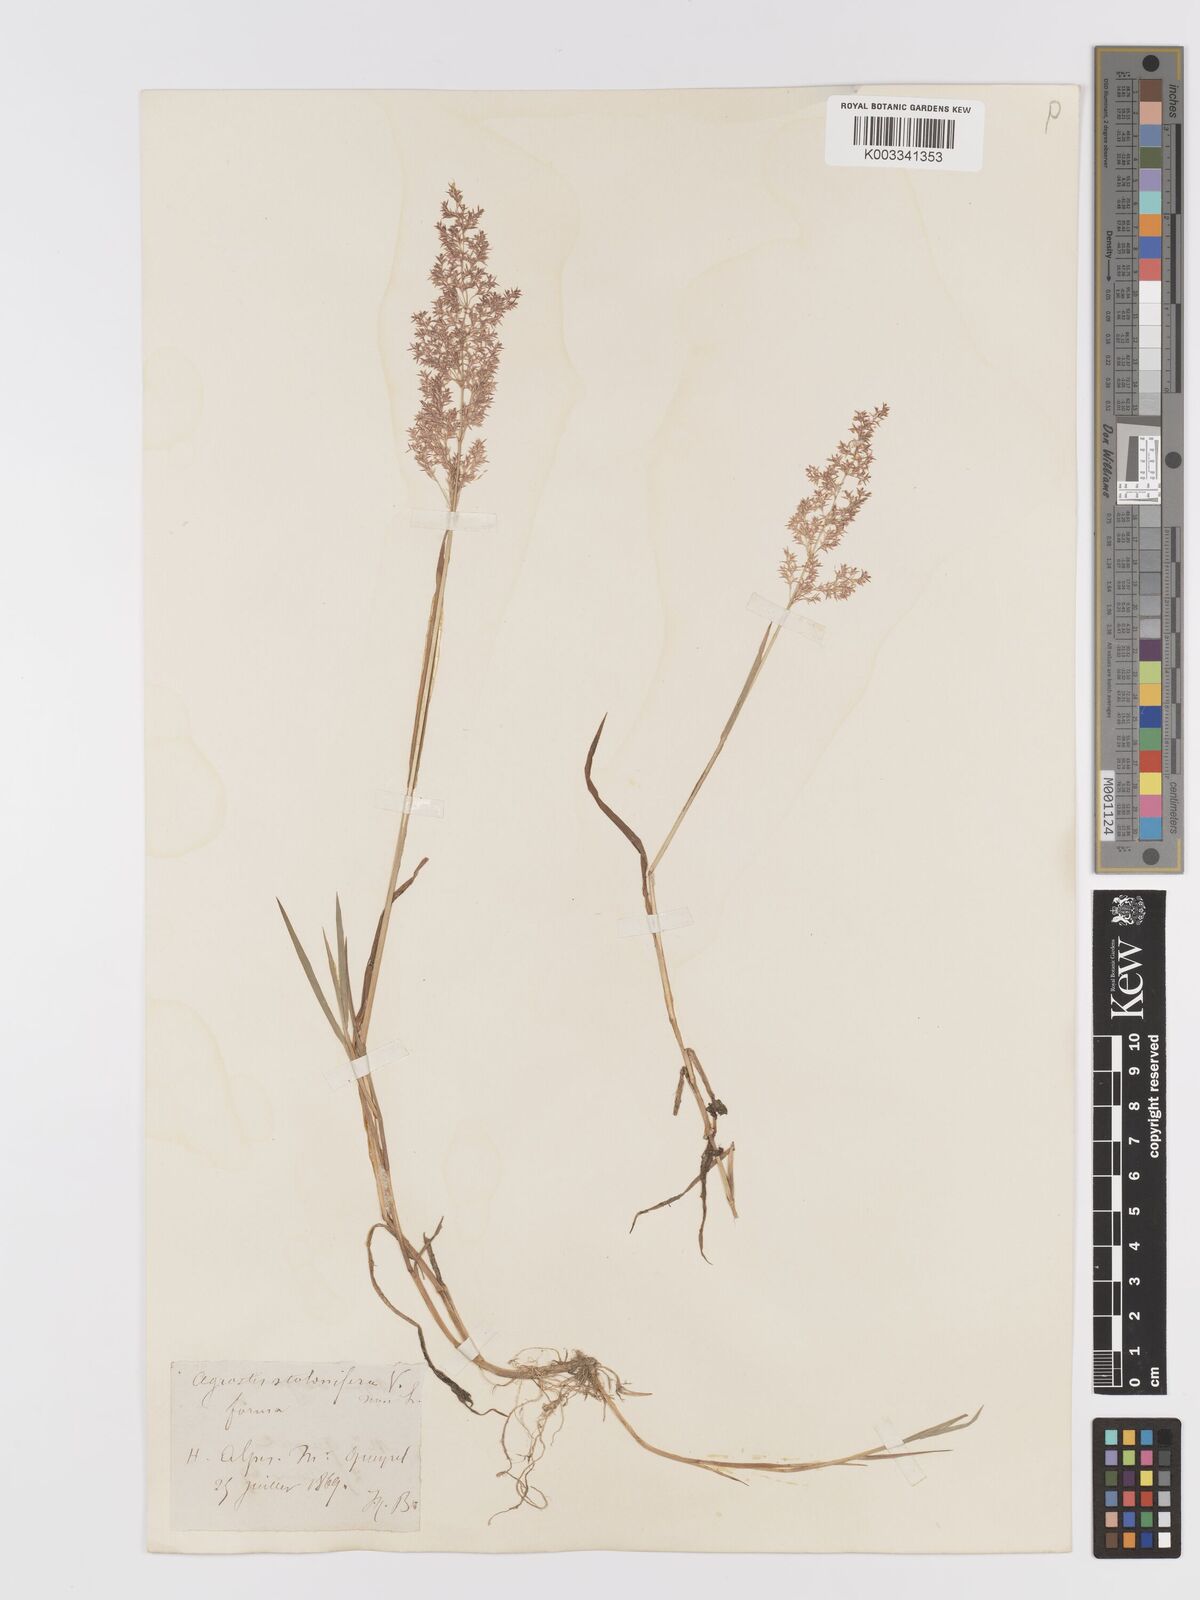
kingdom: Plantae
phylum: Tracheophyta
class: Liliopsida
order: Poales
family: Poaceae
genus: Agrostis
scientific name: Agrostis gigantea
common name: Black bent
